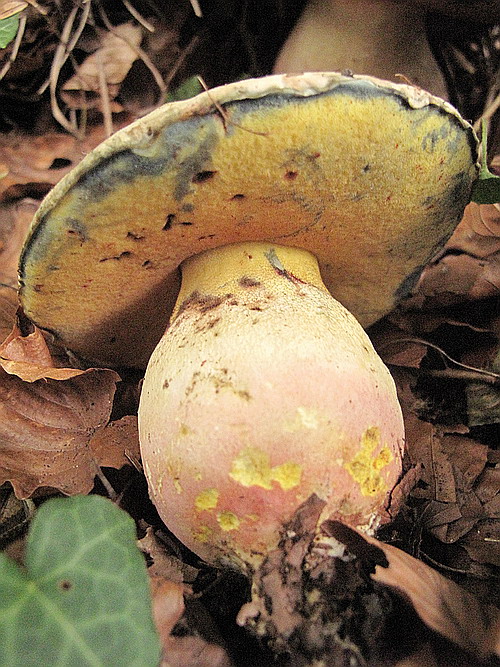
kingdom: Fungi
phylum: Basidiomycota
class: Agaricomycetes
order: Boletales
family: Boletaceae
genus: Rubroboletus
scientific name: Rubroboletus satanas
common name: Satans rørhat
